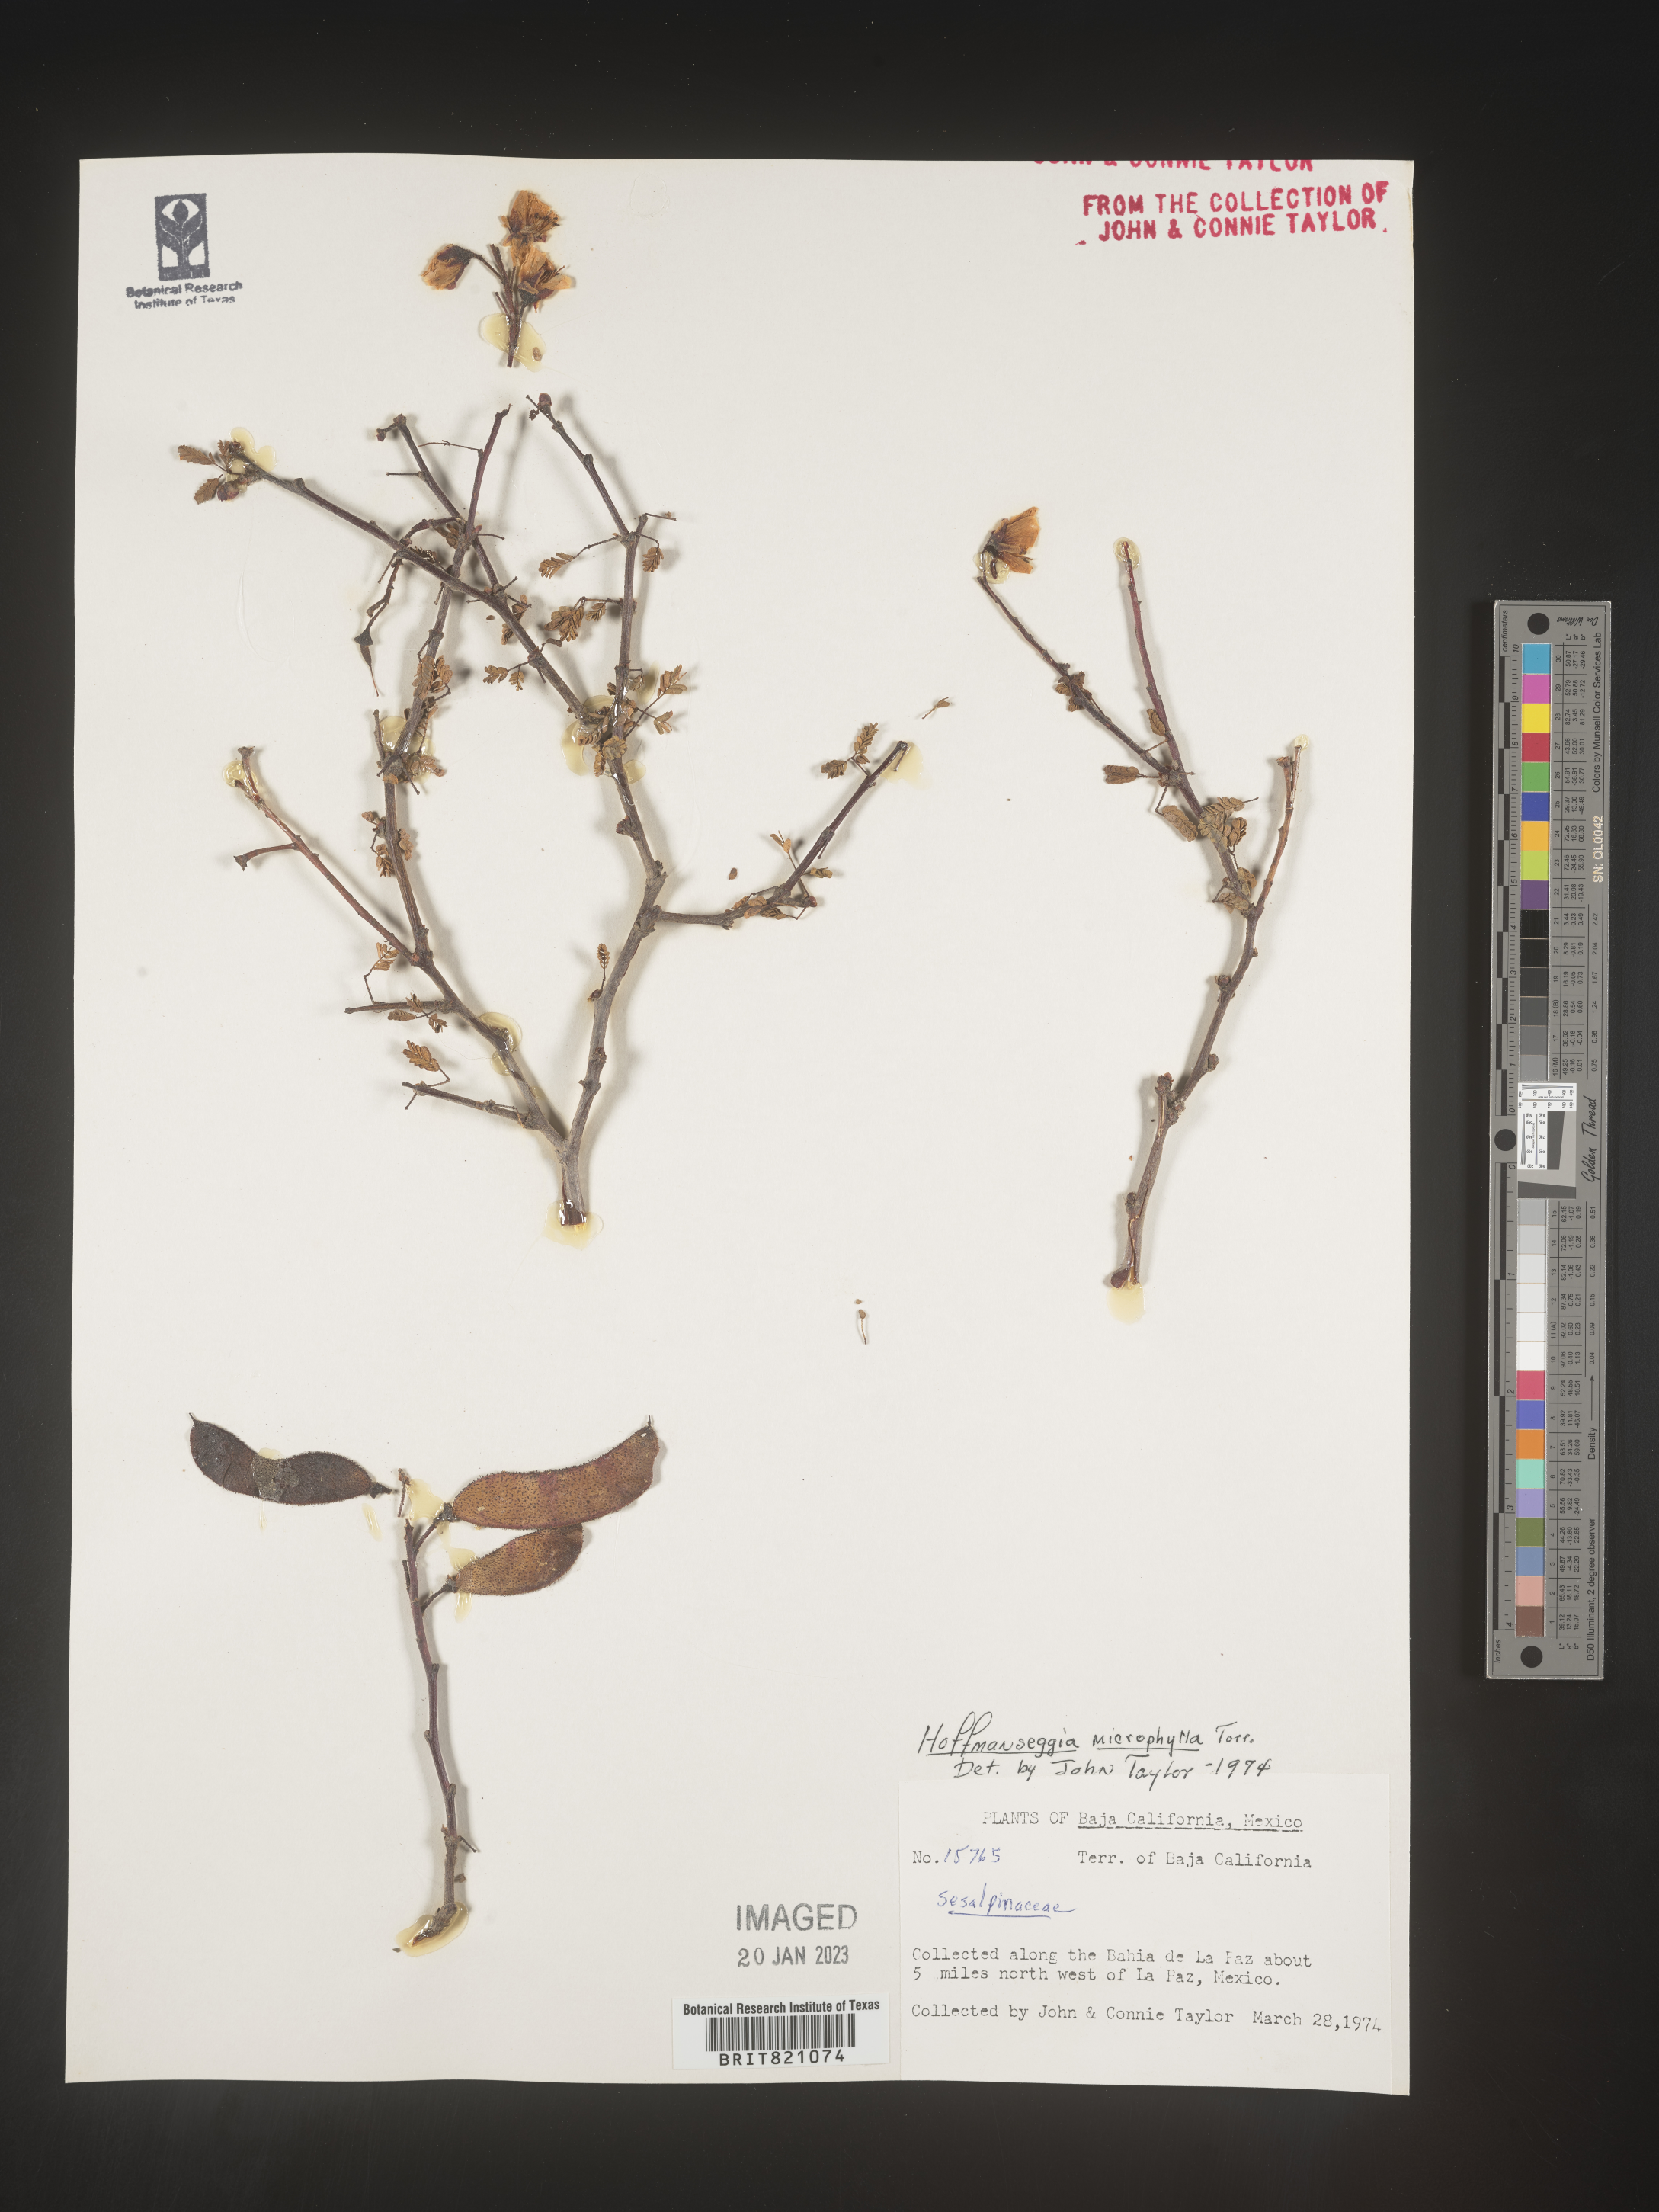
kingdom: Plantae
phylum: Tracheophyta
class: Magnoliopsida
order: Fabales
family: Fabaceae
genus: Hoffmannseggia
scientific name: Hoffmannseggia
